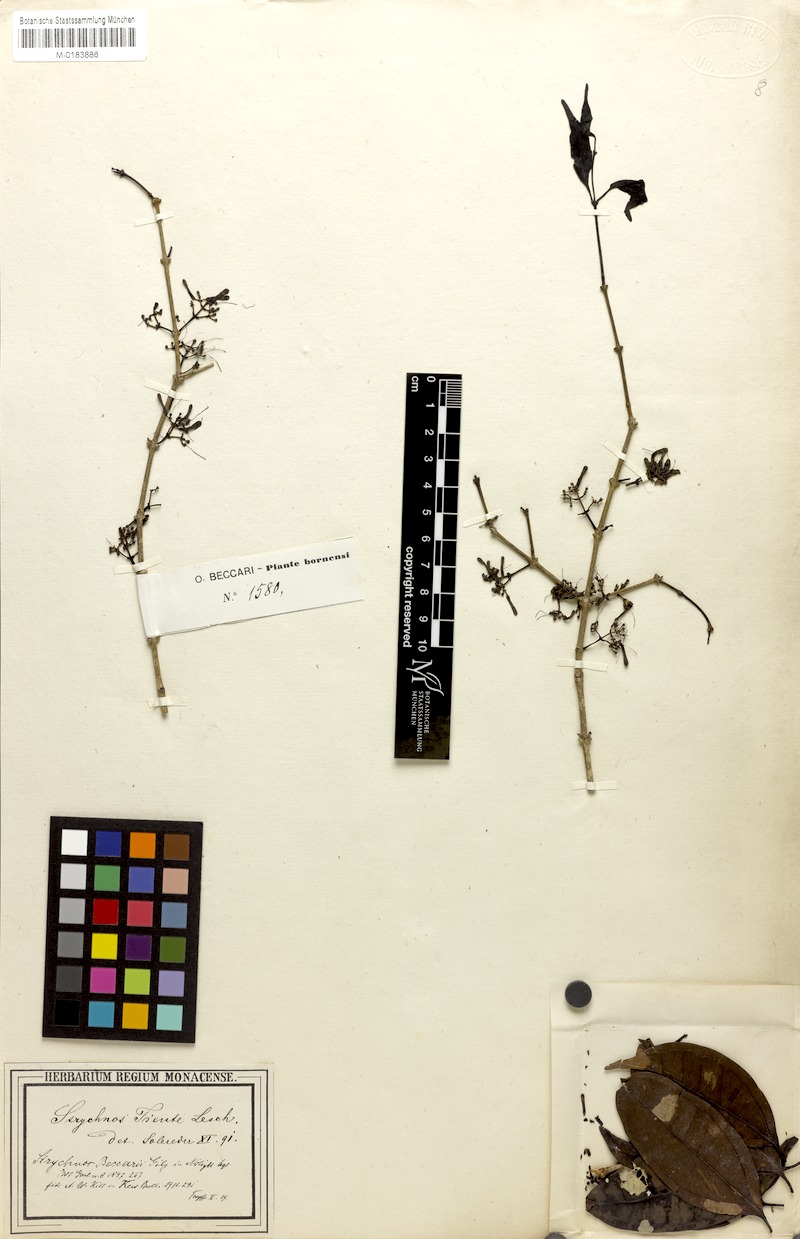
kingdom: Plantae
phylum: Tracheophyta
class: Magnoliopsida
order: Gentianales
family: Loganiaceae
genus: Strychnos
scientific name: Strychnos ignatii
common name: Ignatius-bean
